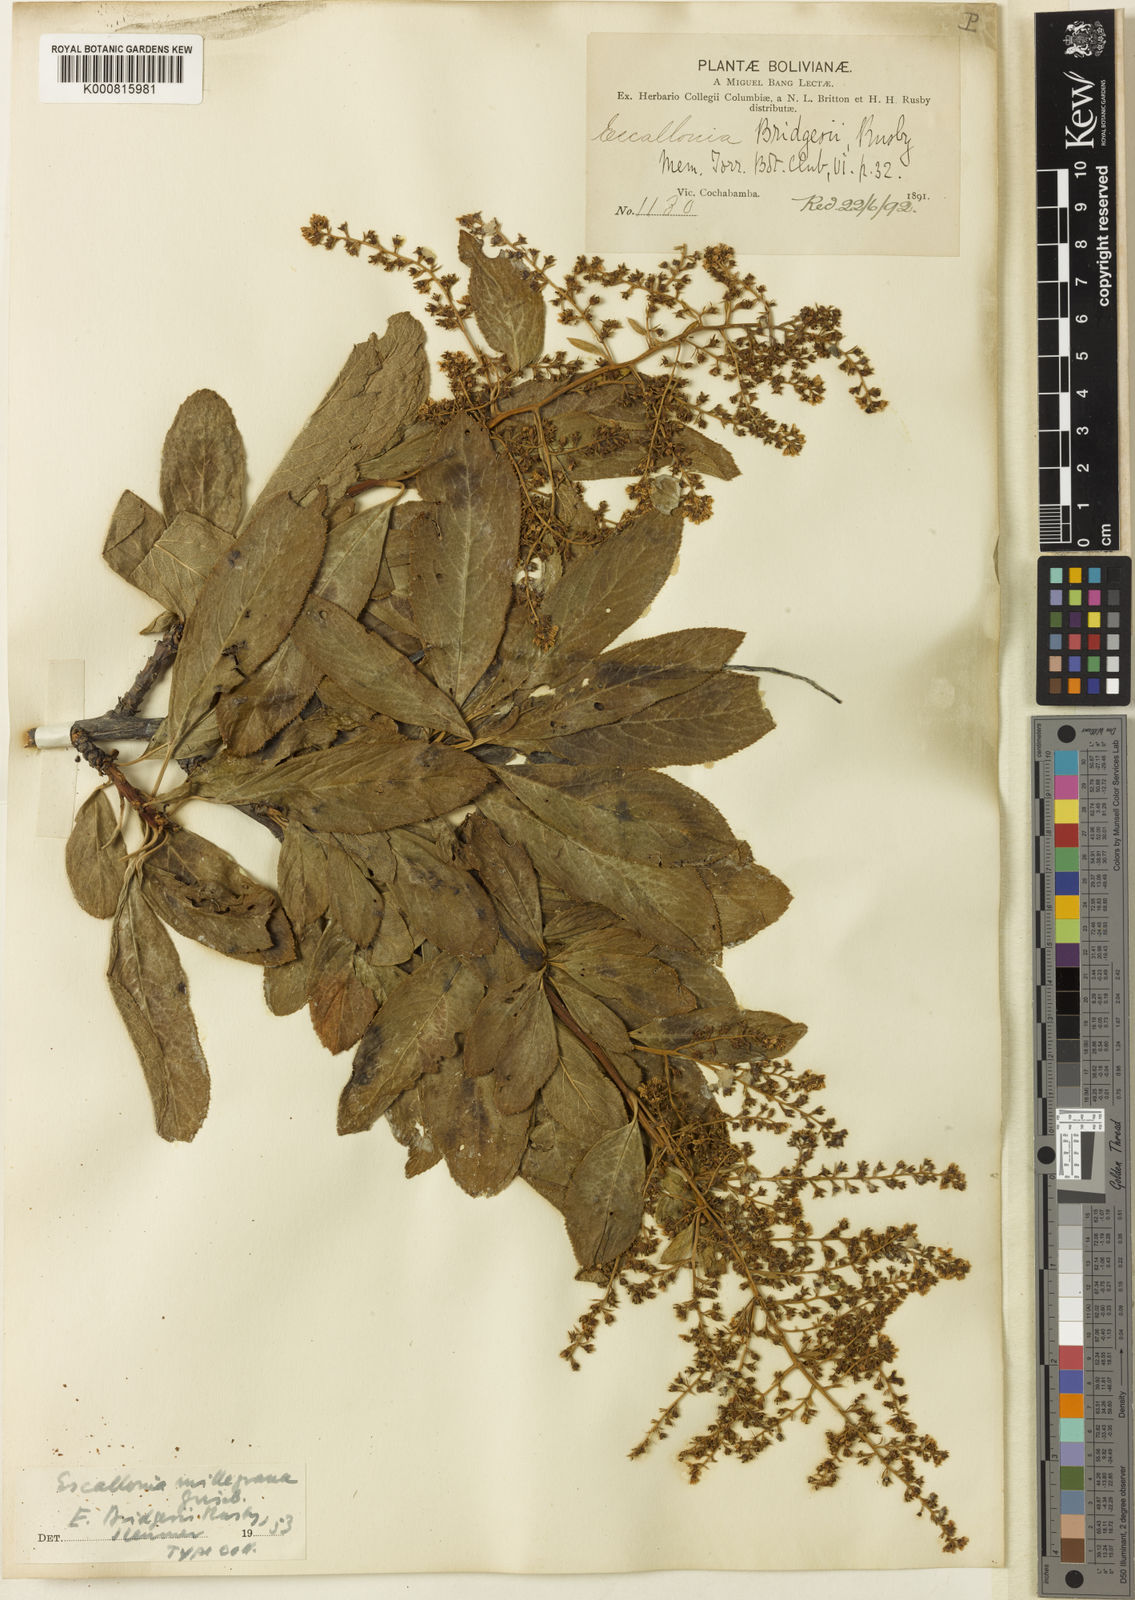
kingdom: Plantae
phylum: Tracheophyta
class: Magnoliopsida
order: Escalloniales
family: Escalloniaceae
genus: Escallonia
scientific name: Escallonia millegrana
